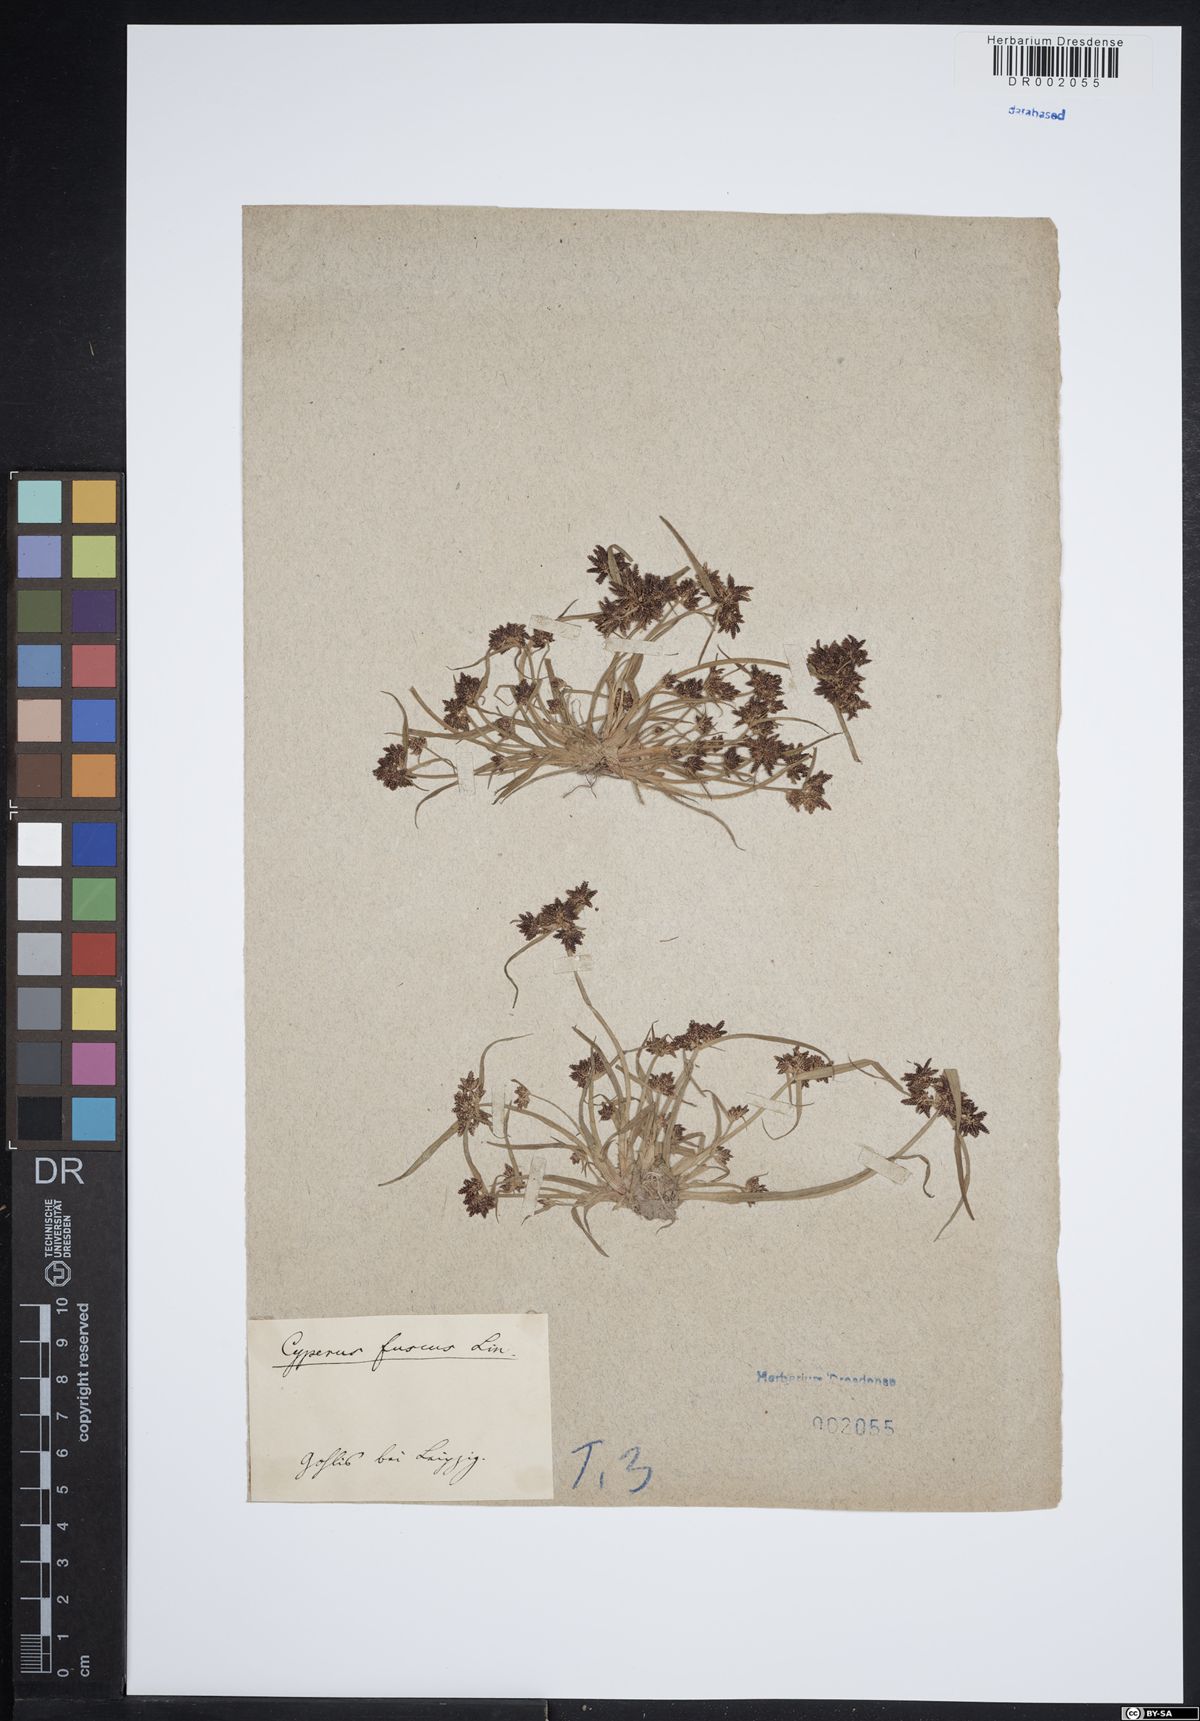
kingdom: Plantae
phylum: Tracheophyta
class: Liliopsida
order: Poales
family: Cyperaceae
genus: Cyperus
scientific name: Cyperus fuscus
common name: Brown galingale
